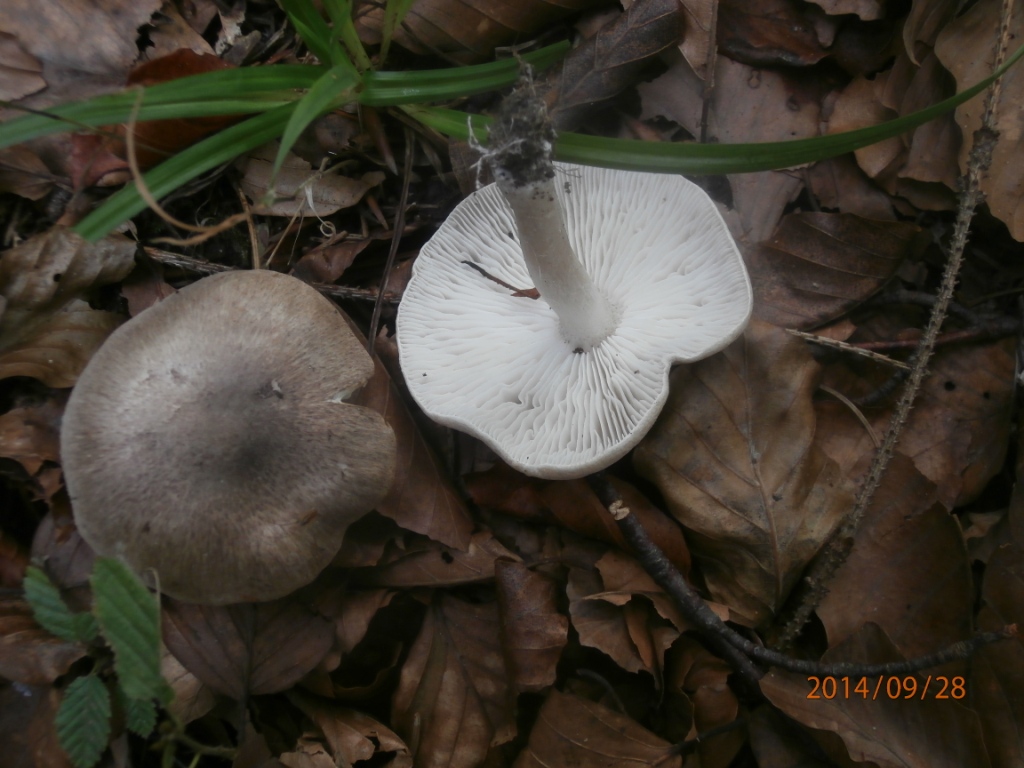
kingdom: Fungi
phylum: Basidiomycota
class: Agaricomycetes
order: Agaricales
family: Tricholomataceae
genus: Tricholoma
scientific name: Tricholoma scalpturatum
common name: gulplettet ridderhat
